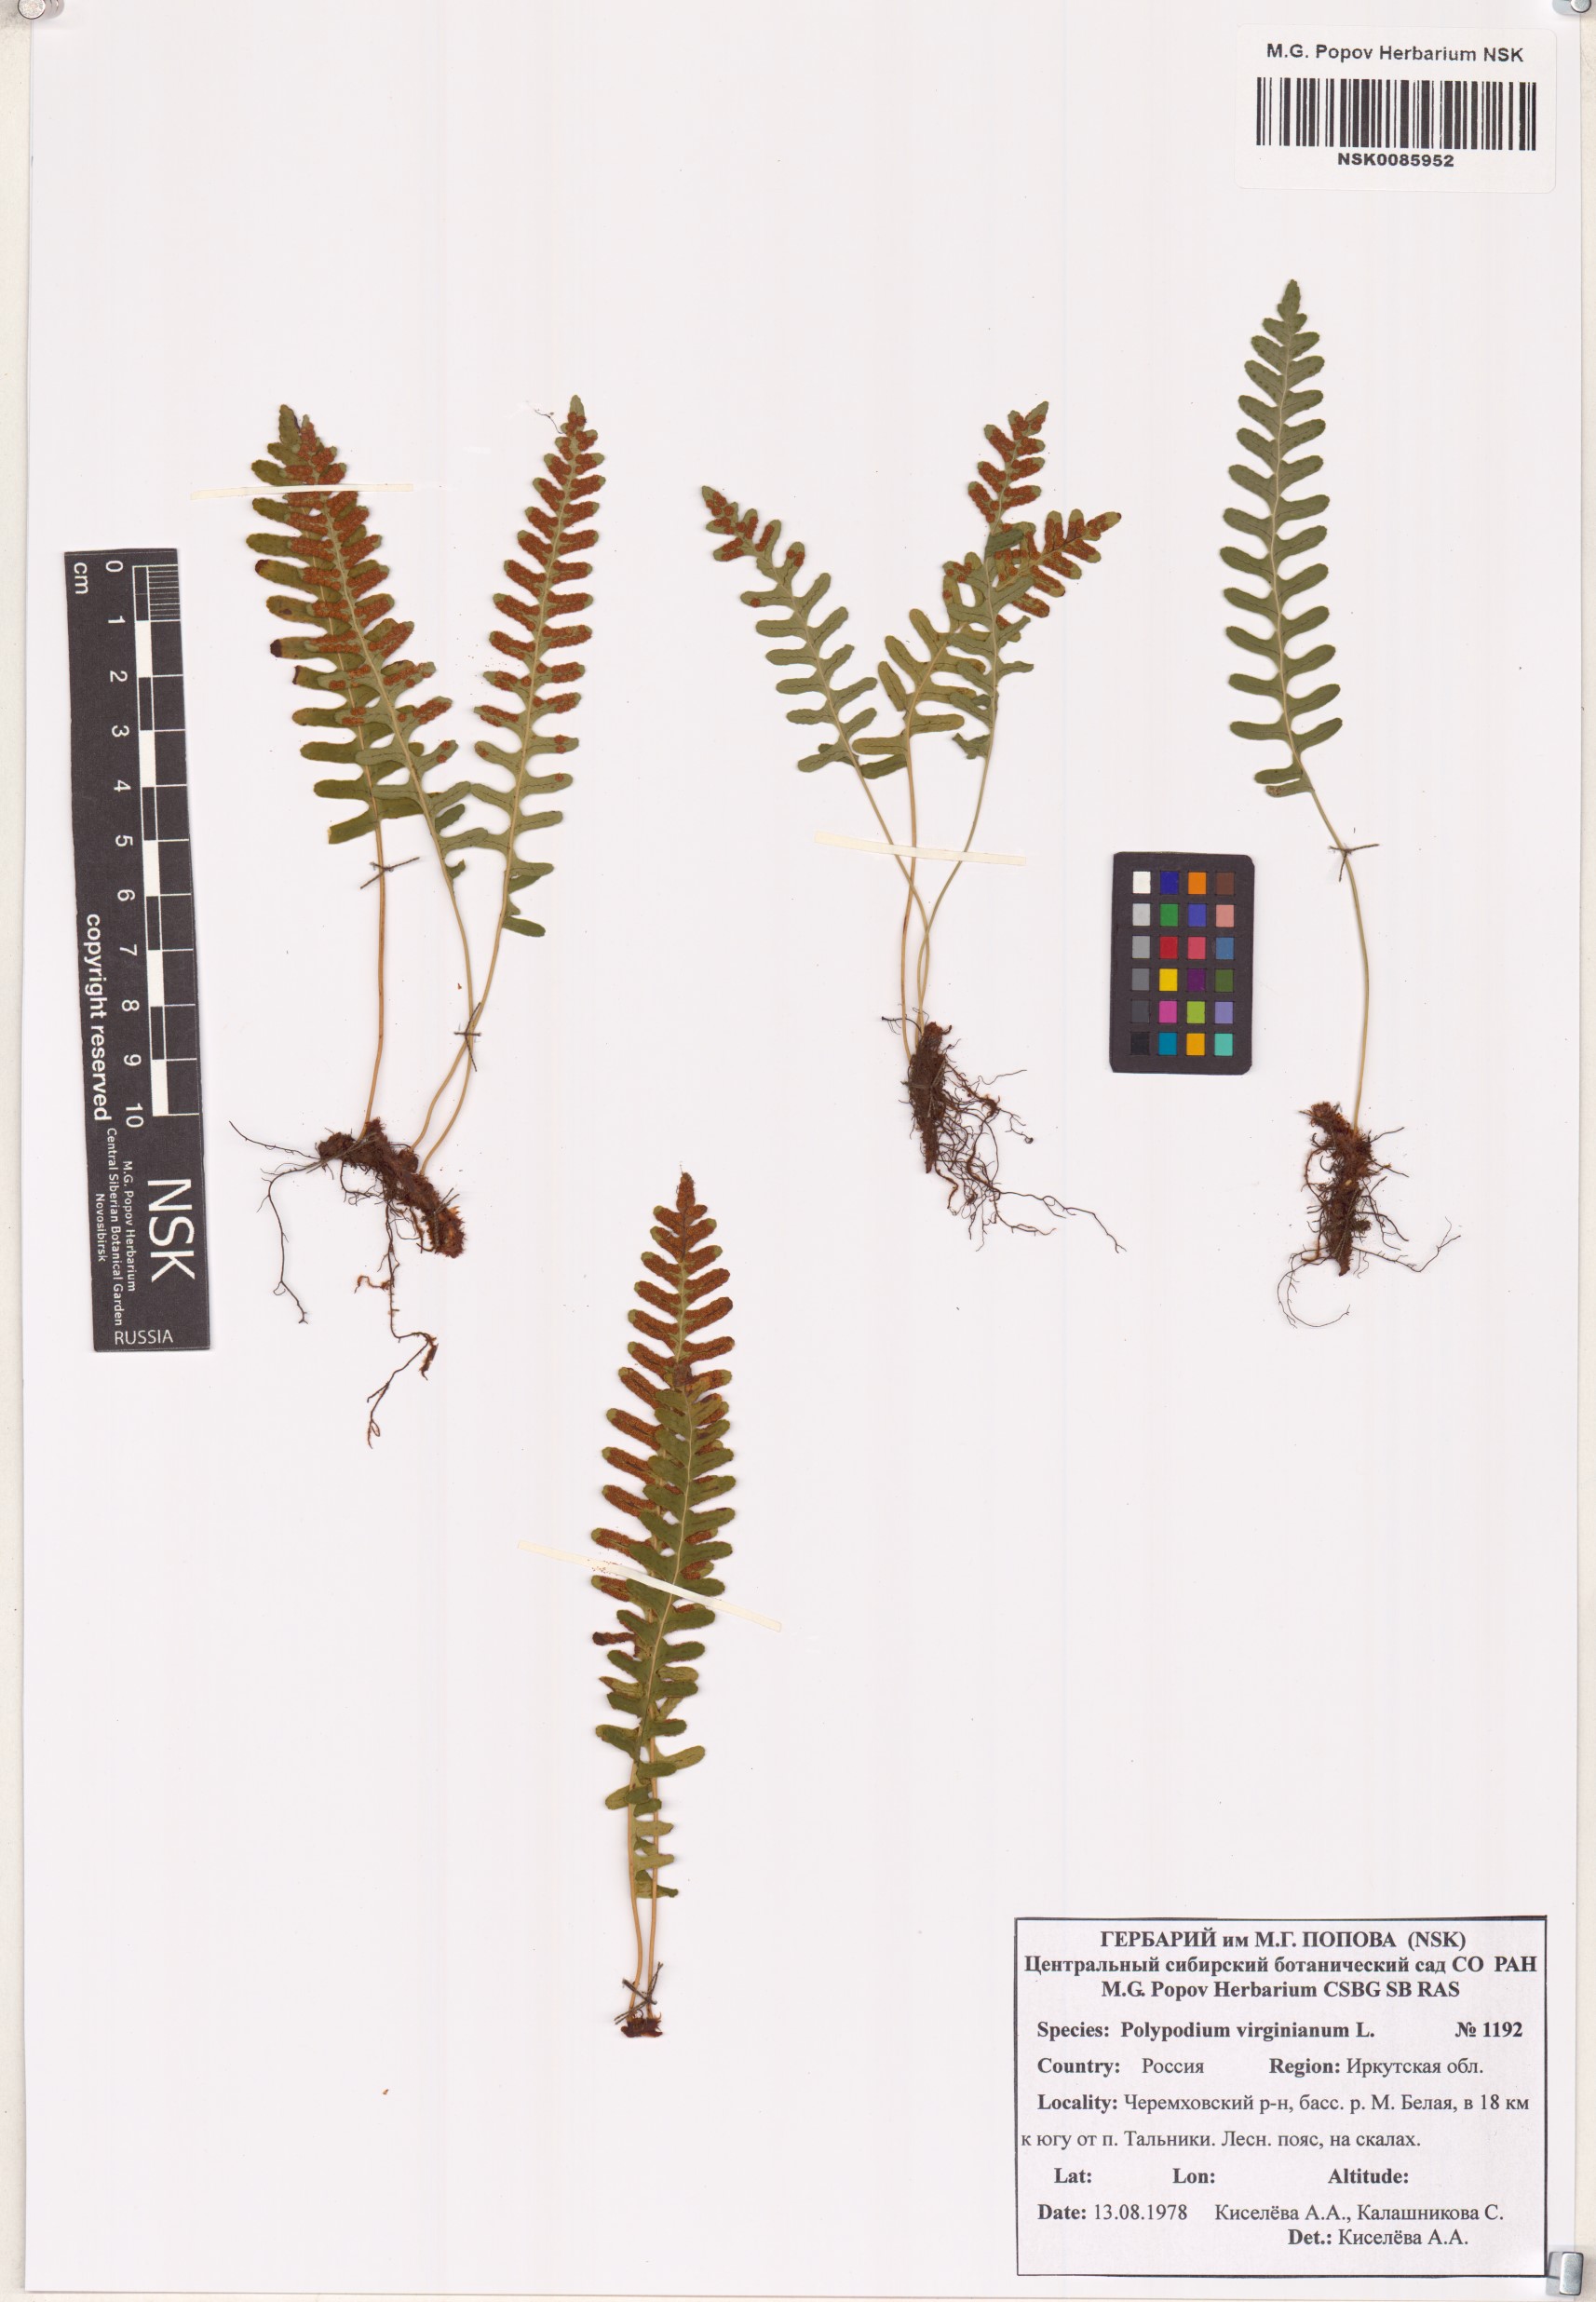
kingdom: Plantae
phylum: Tracheophyta
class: Polypodiopsida
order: Polypodiales
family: Polypodiaceae
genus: Polypodium
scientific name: Polypodium virginianum
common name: American wall fern
